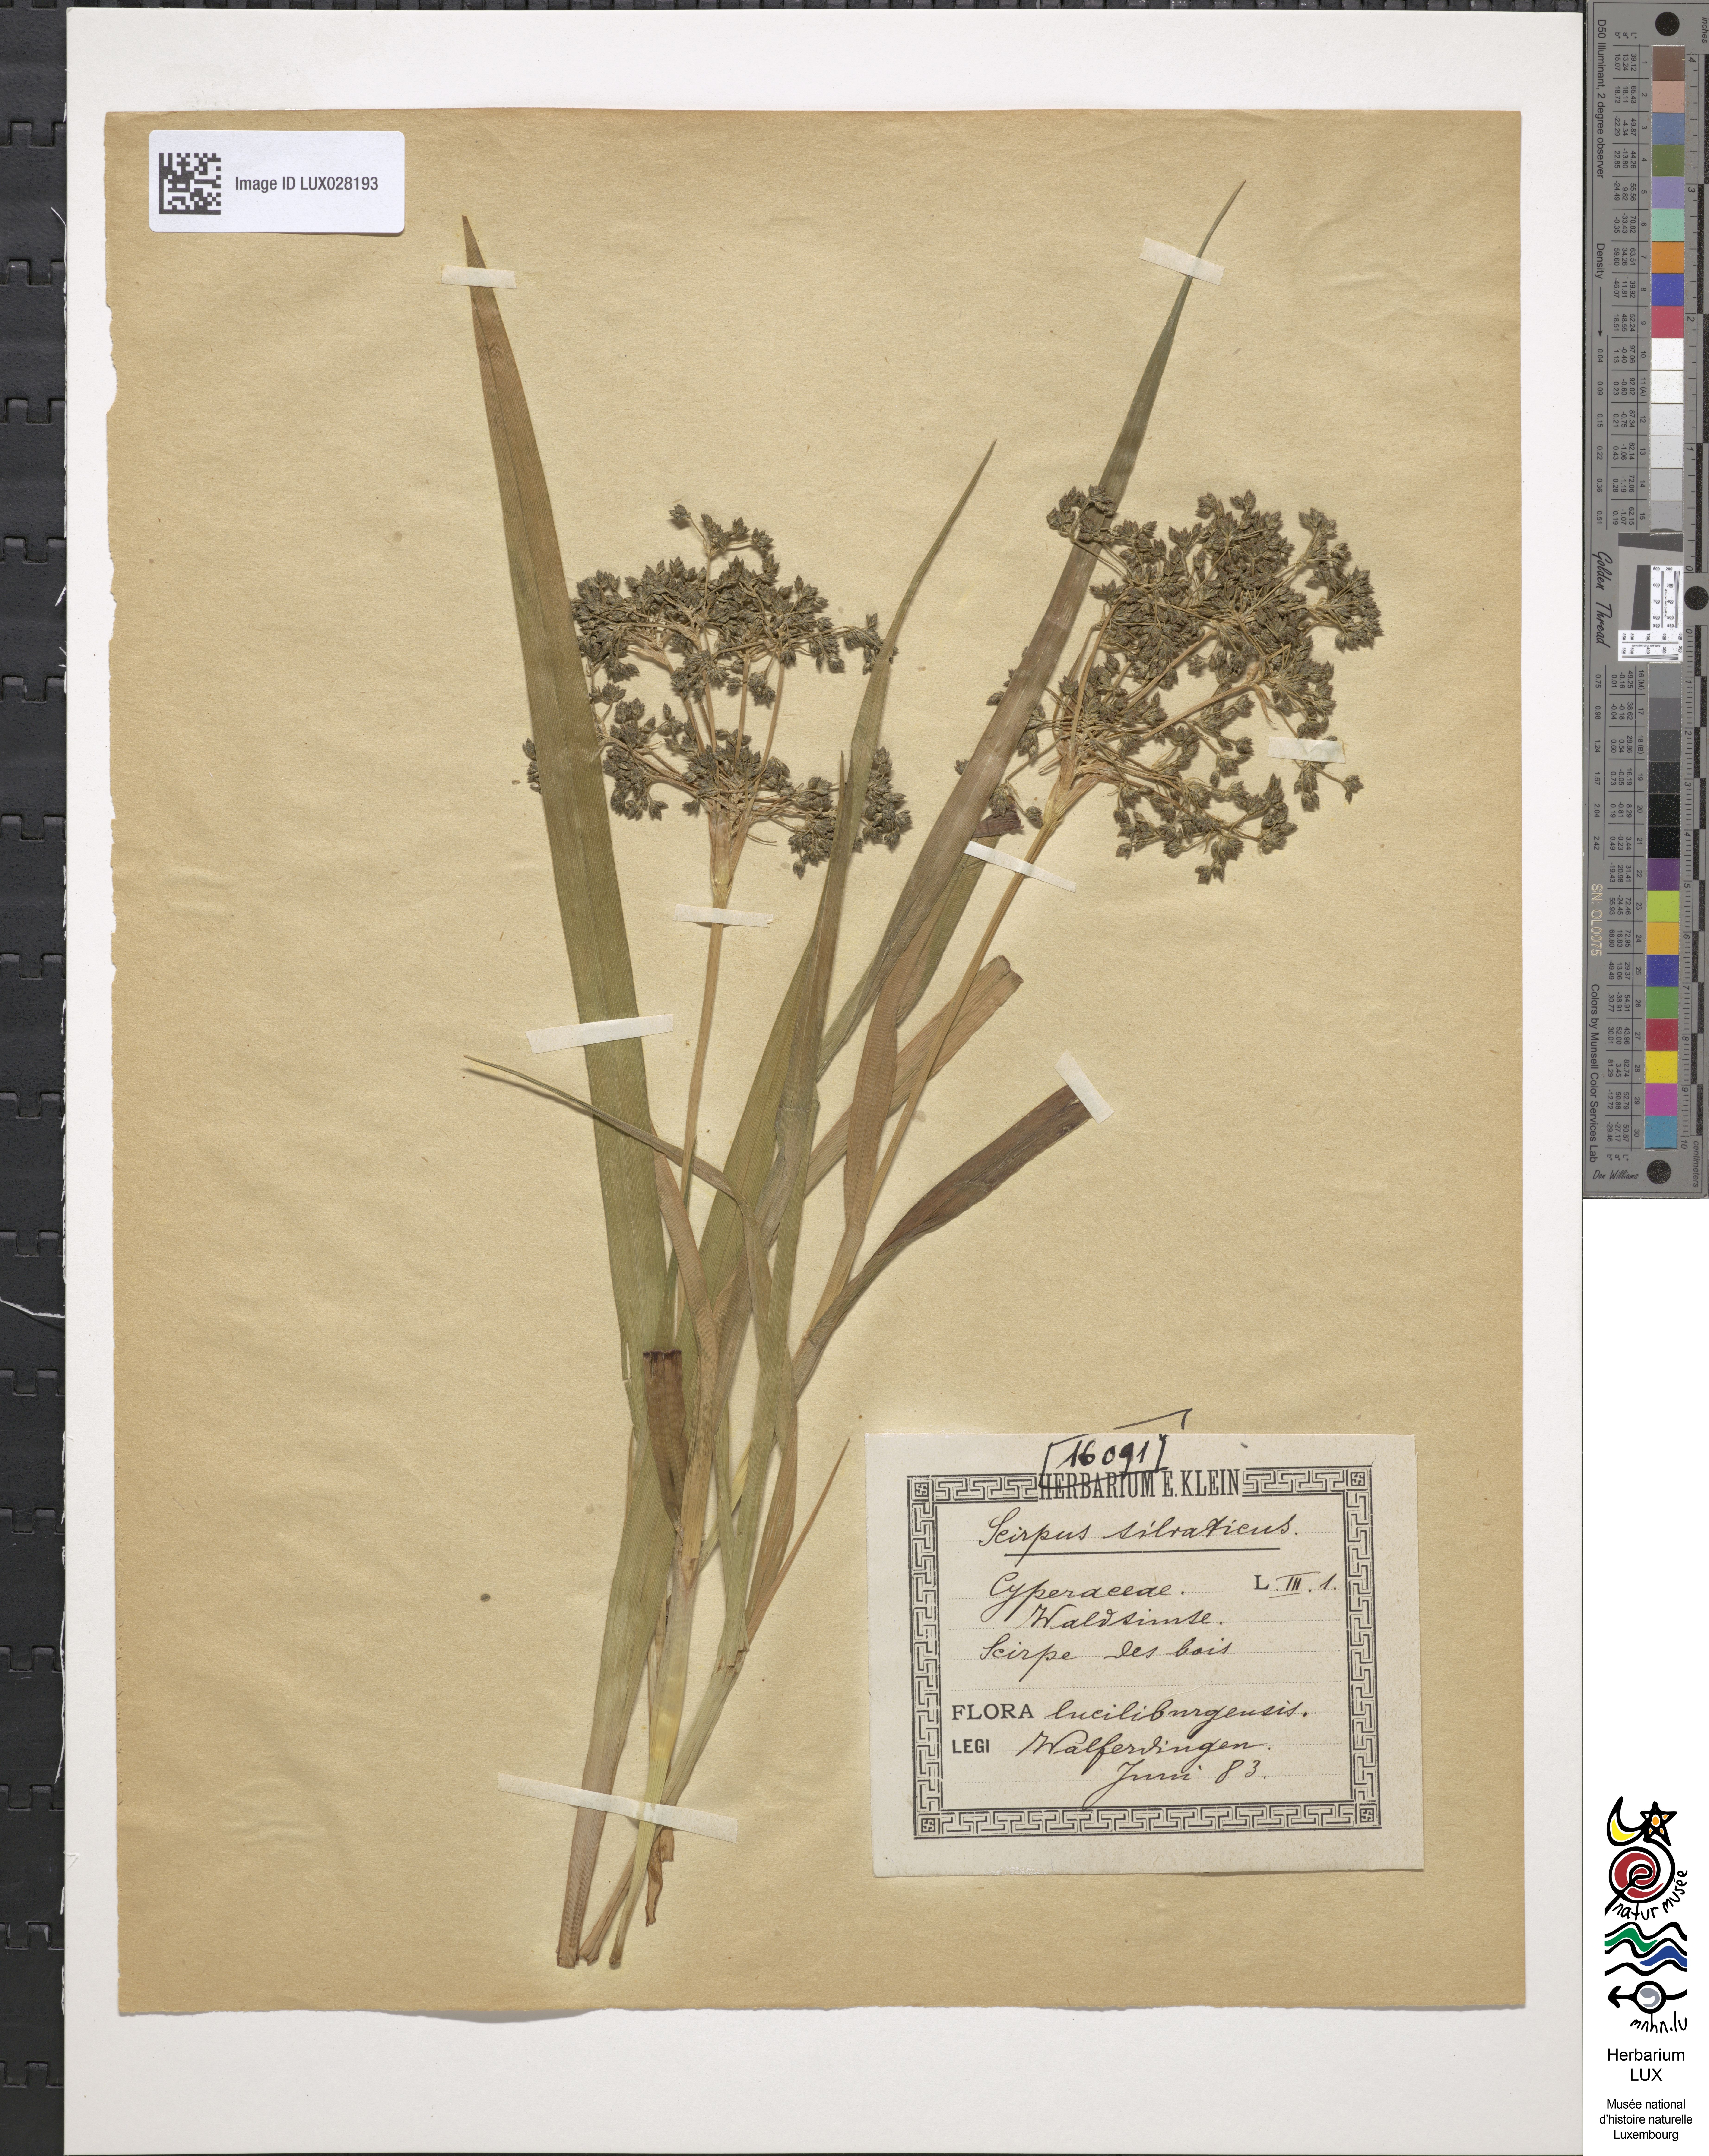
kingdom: Plantae
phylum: Tracheophyta
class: Liliopsida
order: Poales
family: Cyperaceae
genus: Scirpus
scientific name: Scirpus sylvaticus
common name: Wood club-rush
